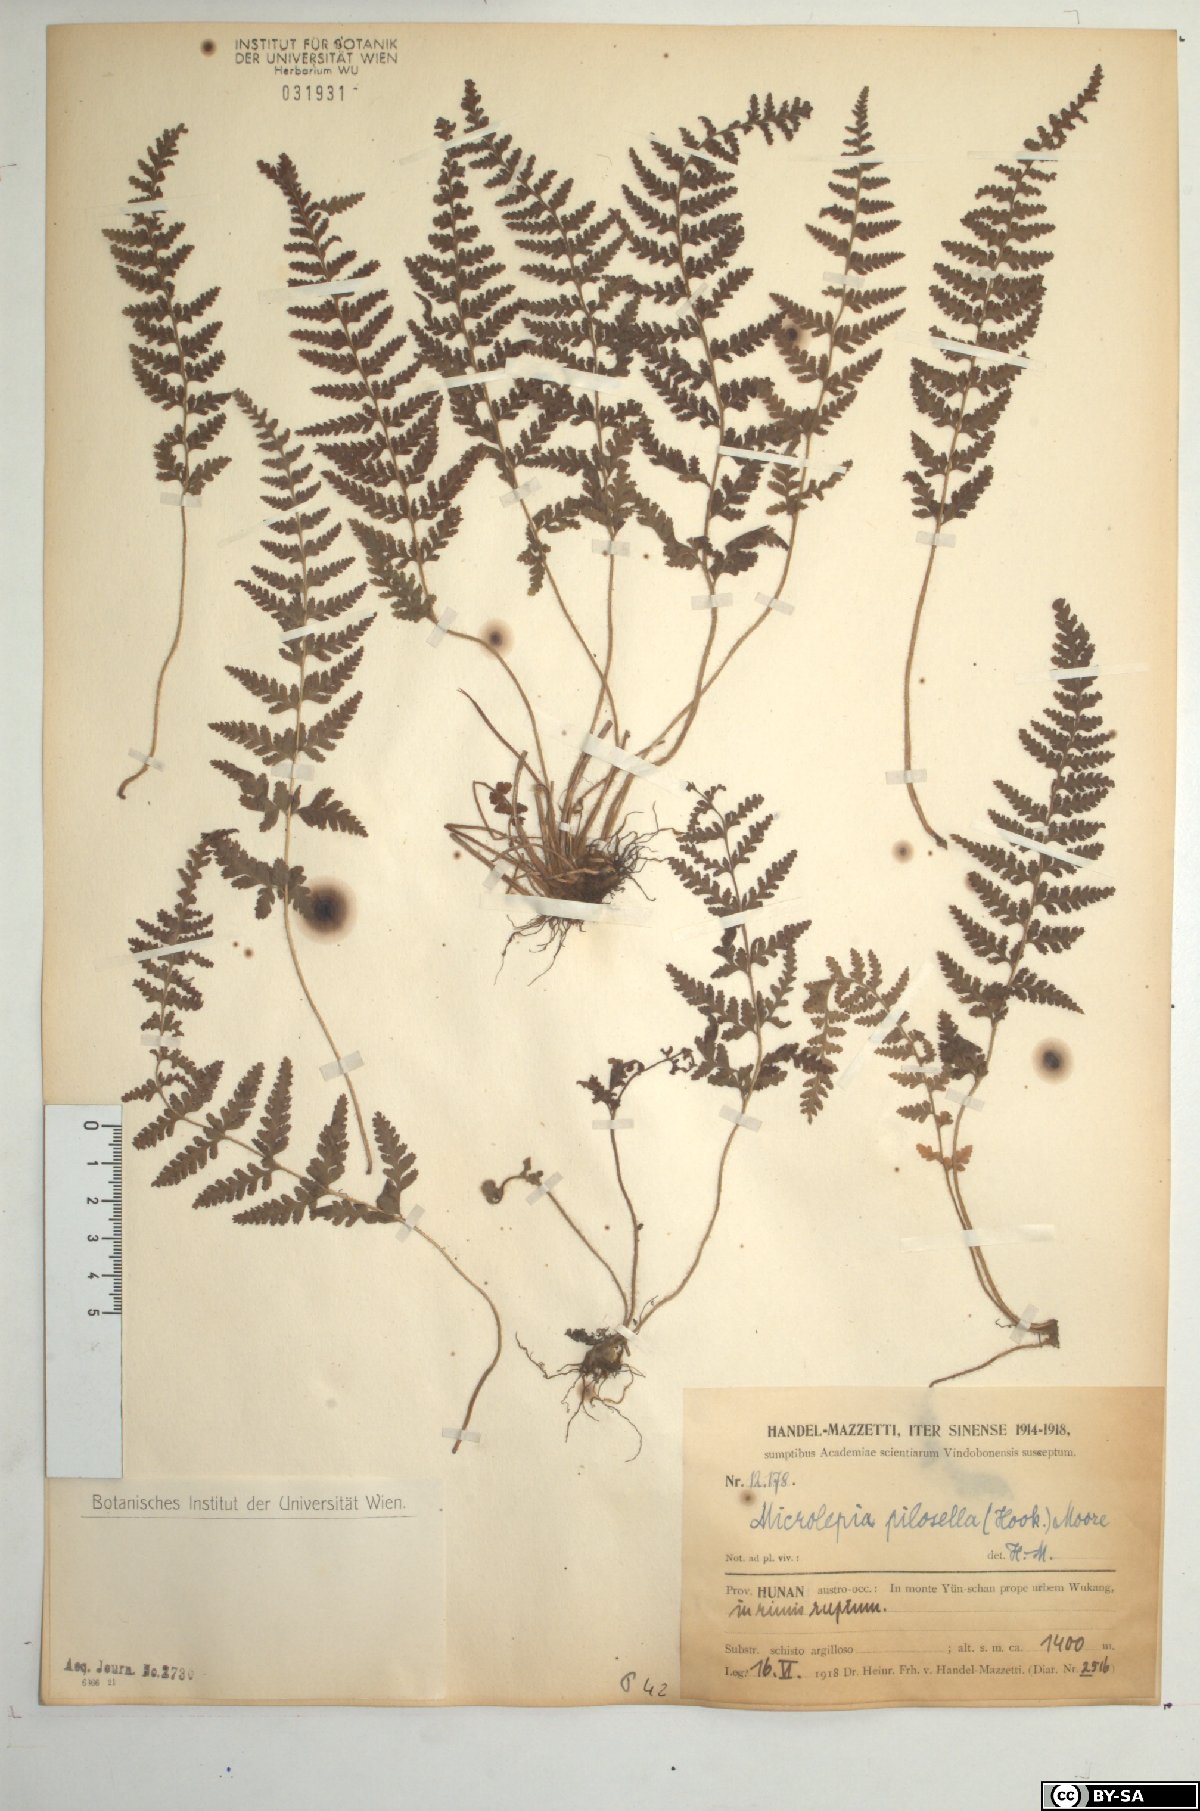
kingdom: Plantae
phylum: Tracheophyta
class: Polypodiopsida
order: Polypodiales
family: Dennstaedtiaceae
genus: Sitobolium
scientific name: Sitobolium hirsutum
